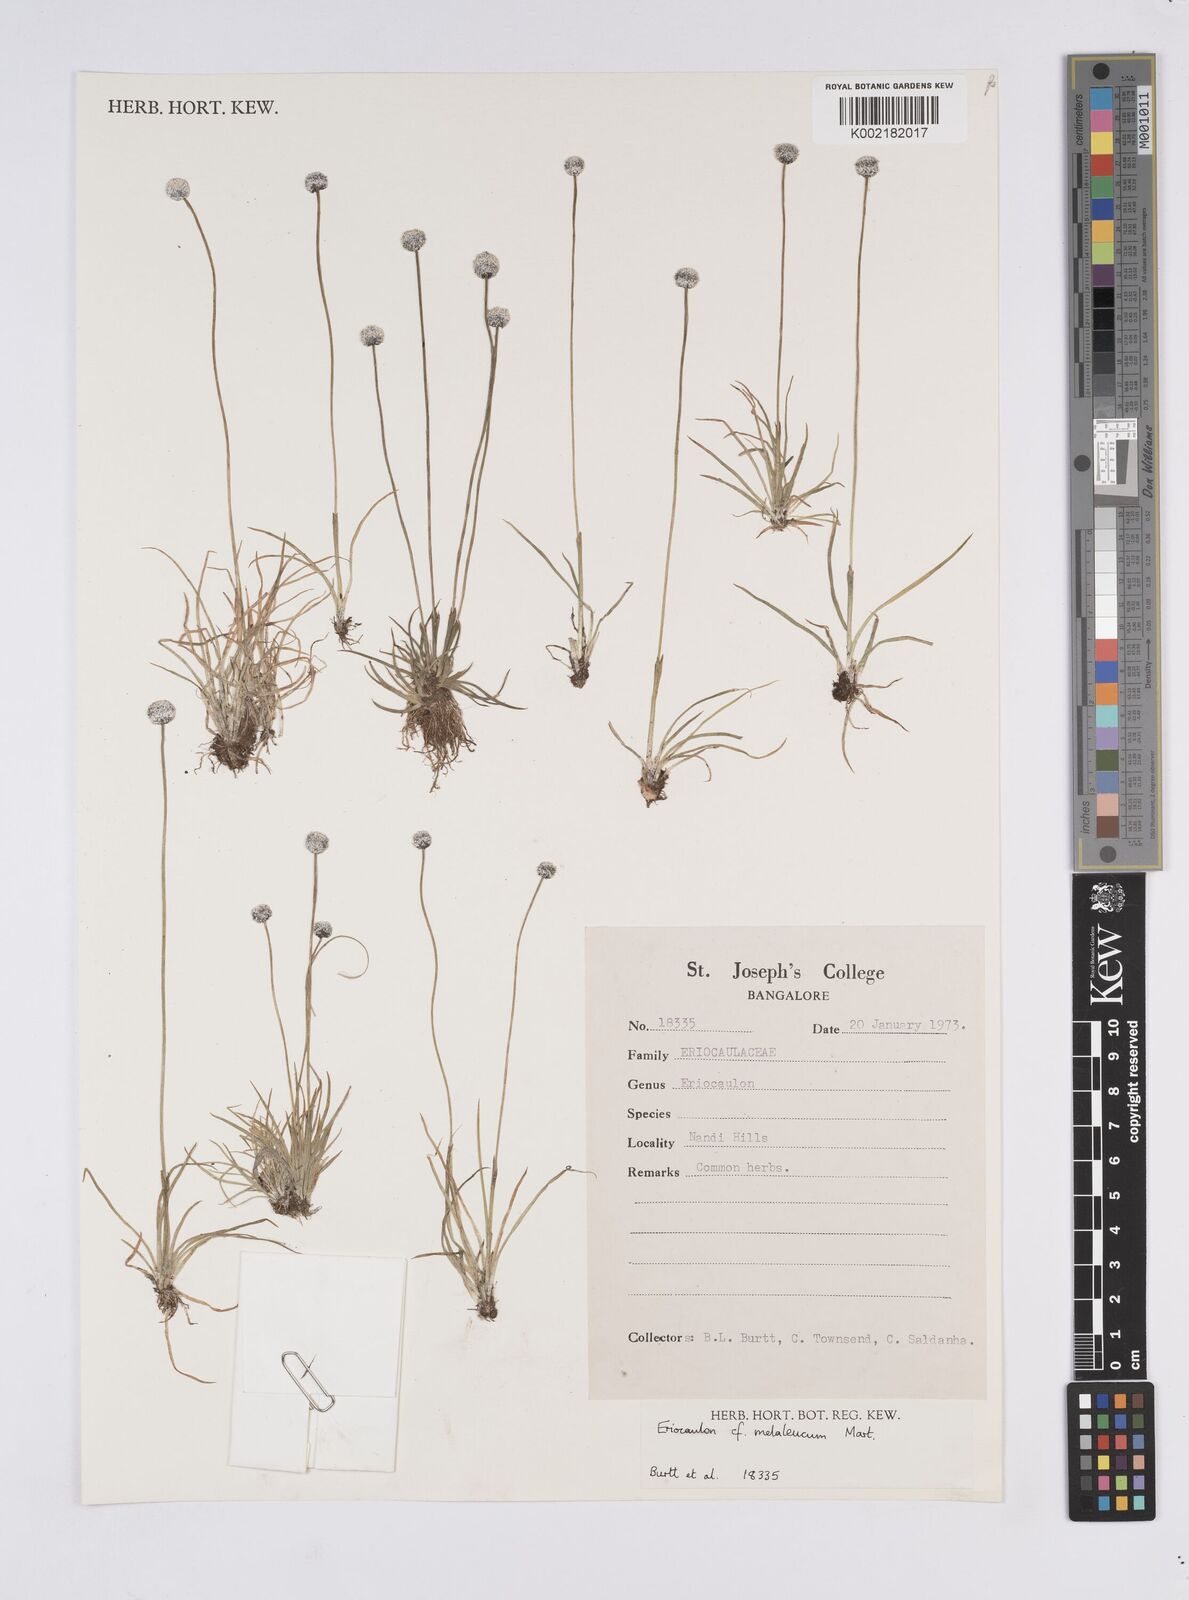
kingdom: Plantae
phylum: Tracheophyta
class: Liliopsida
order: Poales
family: Eriocaulaceae
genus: Eriocaulon
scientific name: Eriocaulon leucomelas
